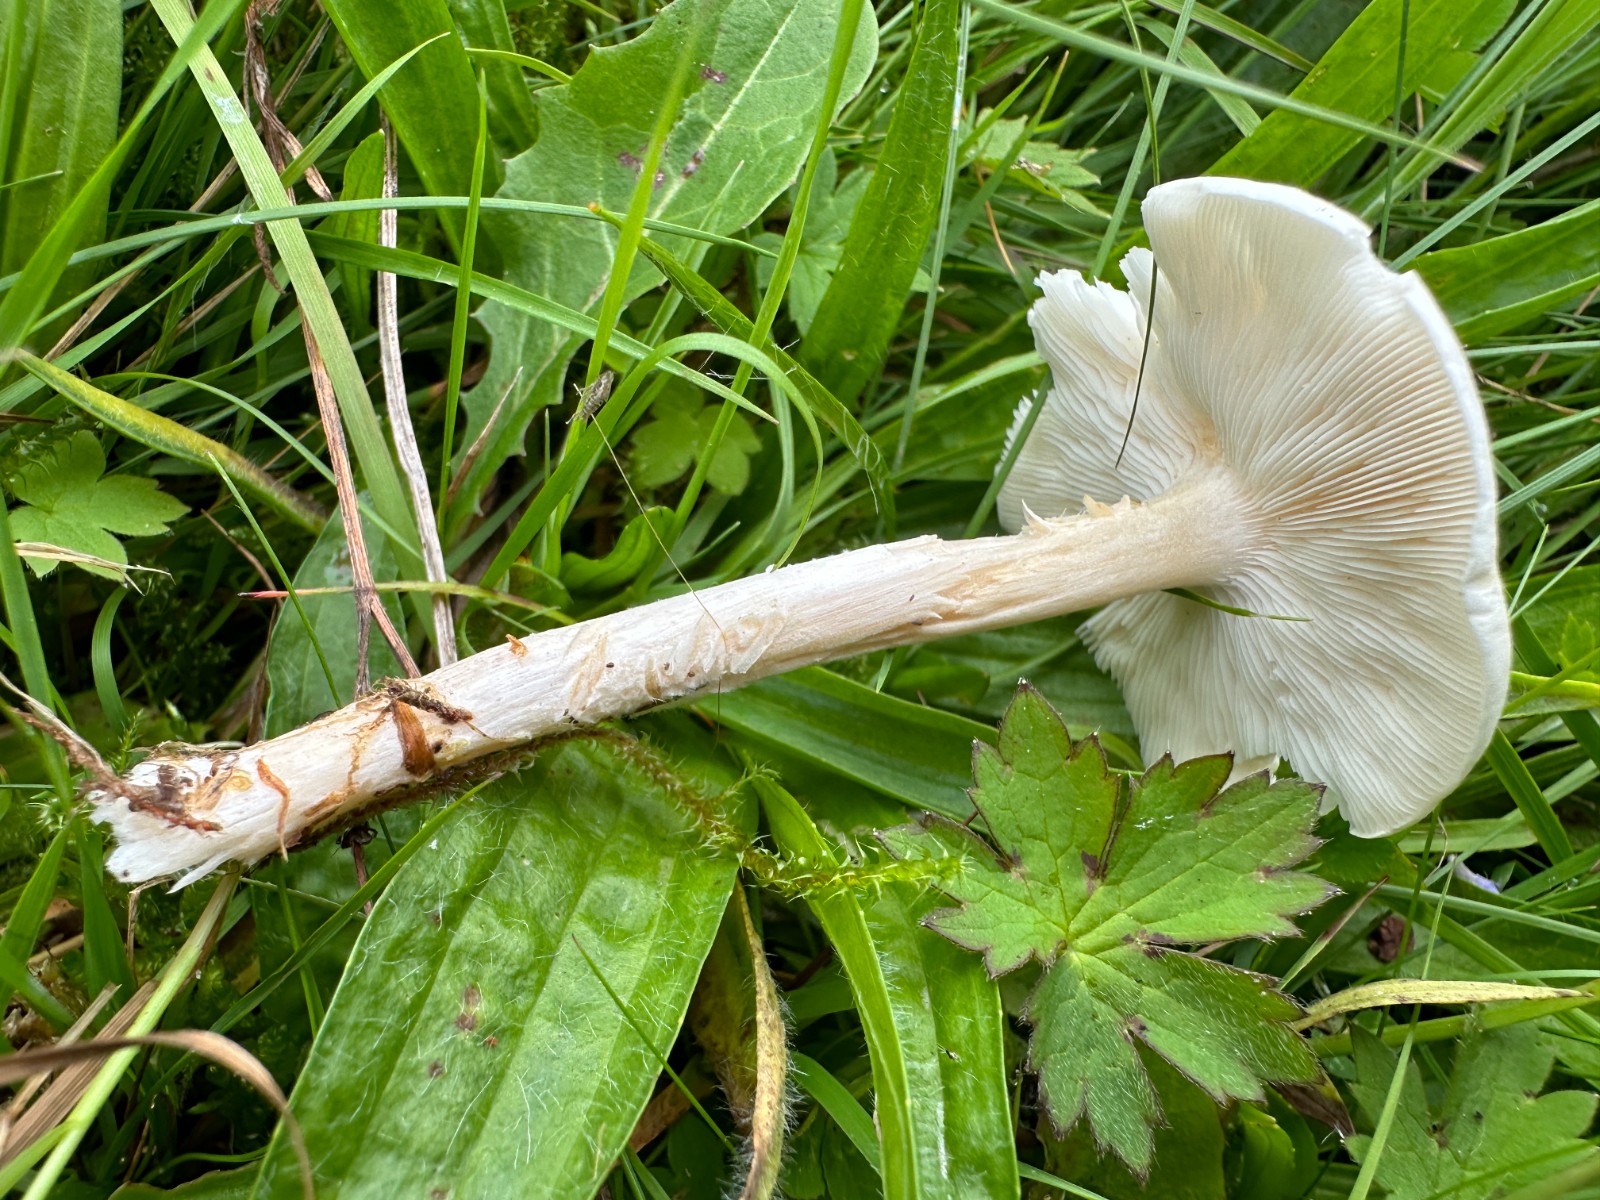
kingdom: Fungi
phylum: Basidiomycota
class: Agaricomycetes
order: Agaricales
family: Tricholomataceae
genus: Melanoleuca
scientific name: Melanoleuca
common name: munkehat
